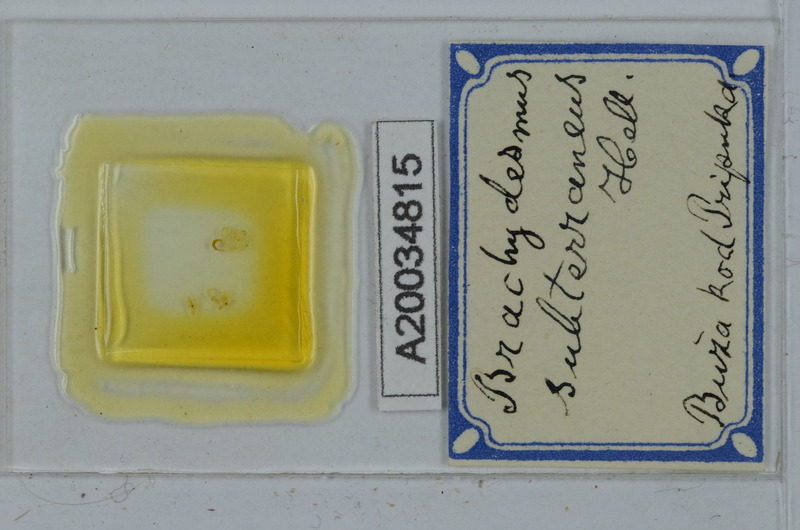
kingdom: Animalia
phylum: Arthropoda
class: Diplopoda
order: Polydesmida
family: Polydesmidae
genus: Brachydesmus
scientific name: Brachydesmus subterraneus
